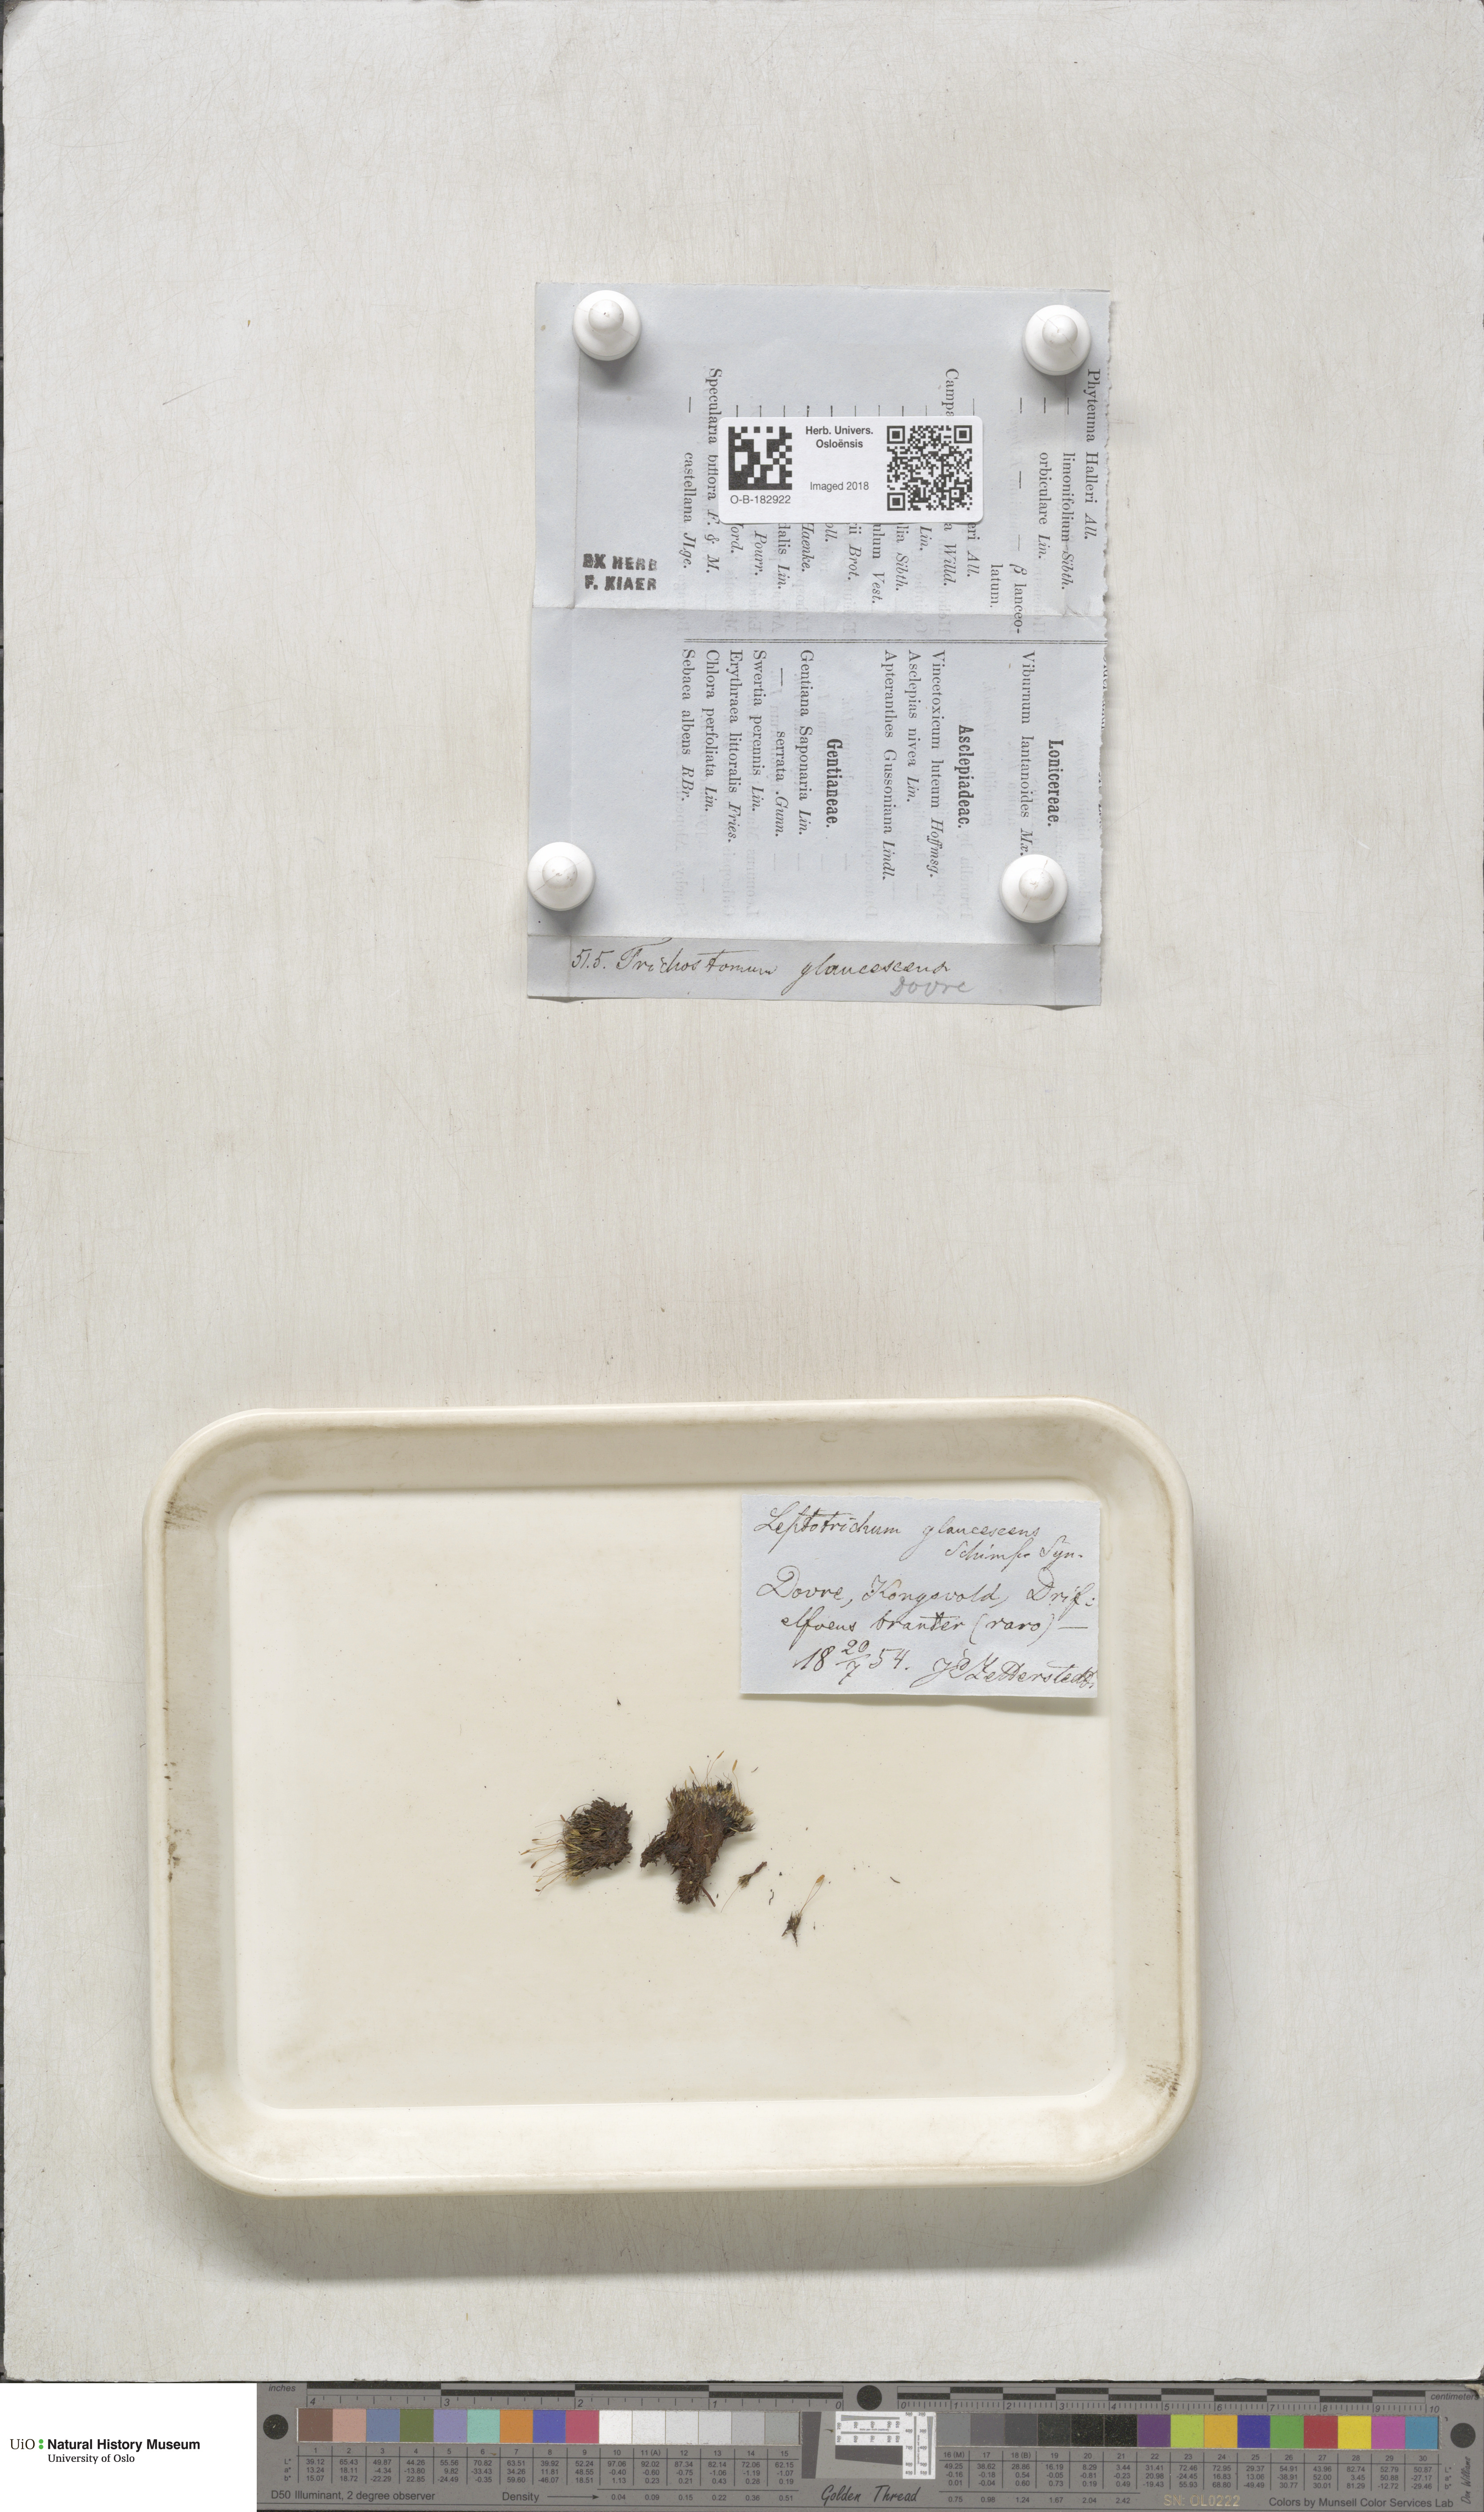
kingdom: Plantae
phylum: Bryophyta
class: Bryopsida
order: Grimmiales
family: Saelaniaceae
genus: Saelania
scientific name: Saelania glaucescens
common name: Blue dew-moss
